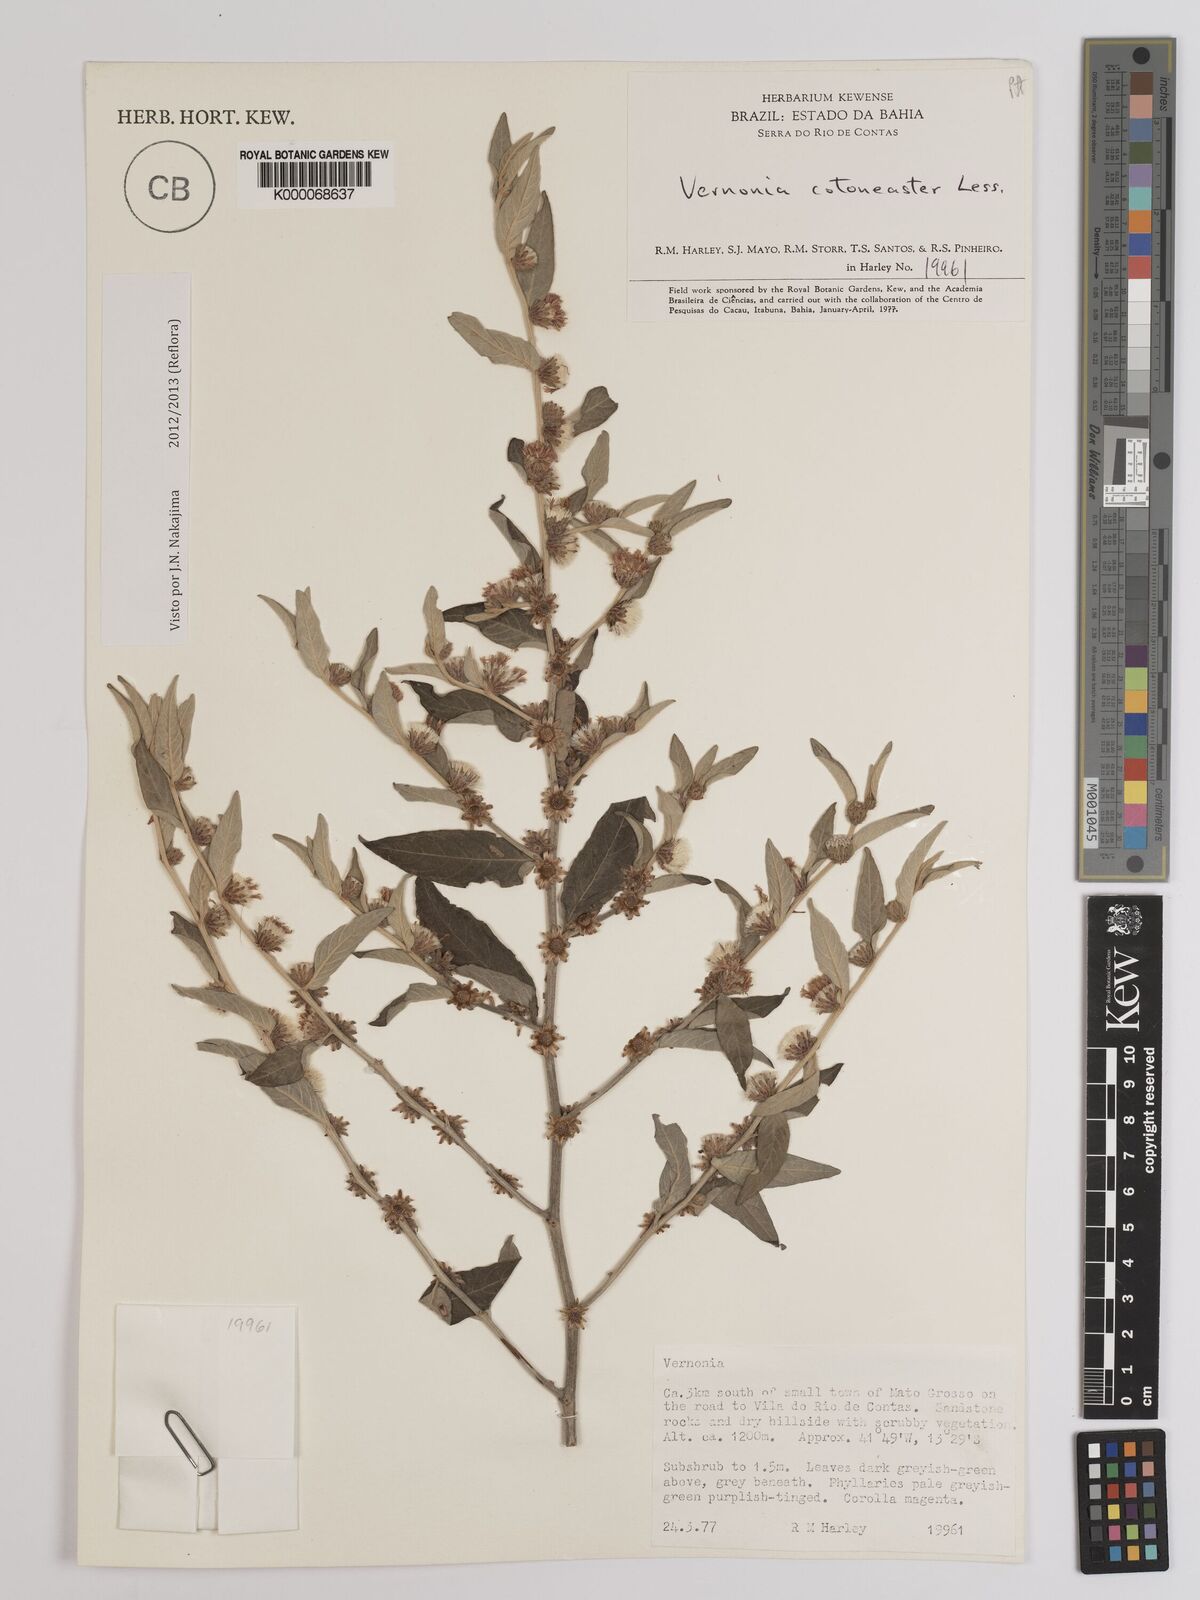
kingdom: Plantae
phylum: Tracheophyta
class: Magnoliopsida
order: Asterales
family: Asteraceae
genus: Lepidaploa
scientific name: Lepidaploa cotoneaster
